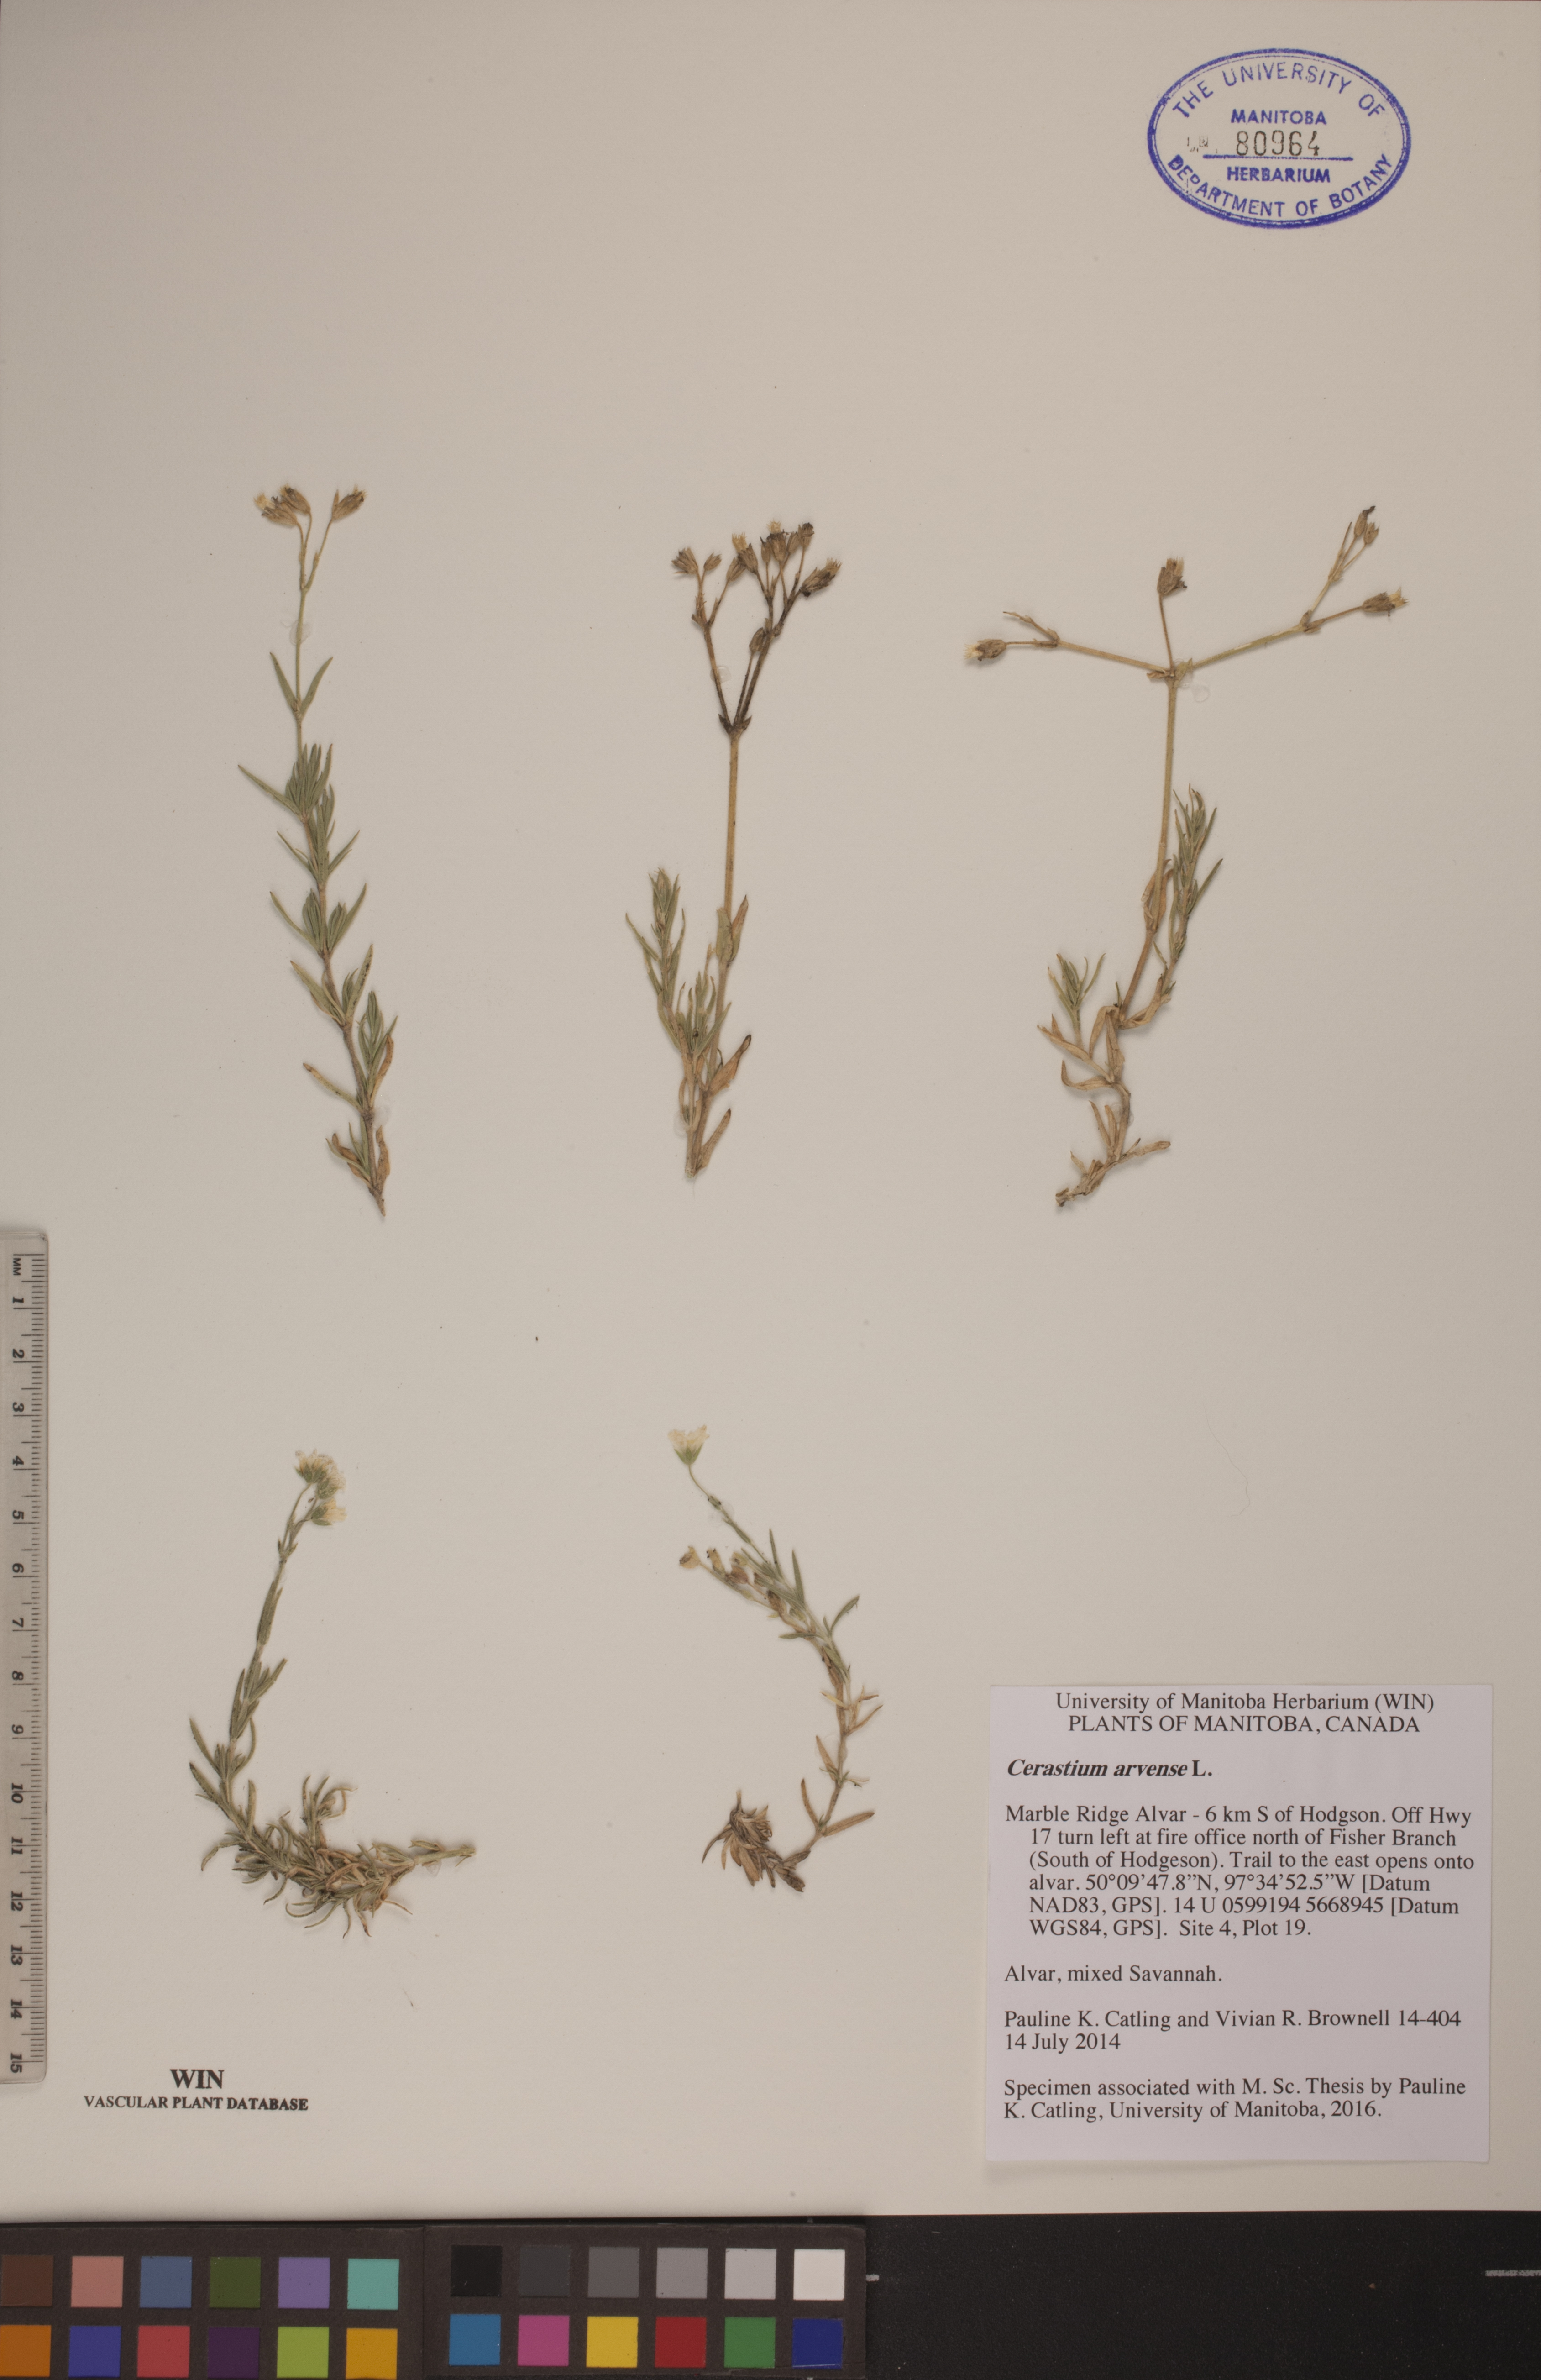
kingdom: Plantae
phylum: Tracheophyta
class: Magnoliopsida
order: Caryophyllales
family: Caryophyllaceae
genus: Cerastium
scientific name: Cerastium arvense
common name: Field mouse-ear
